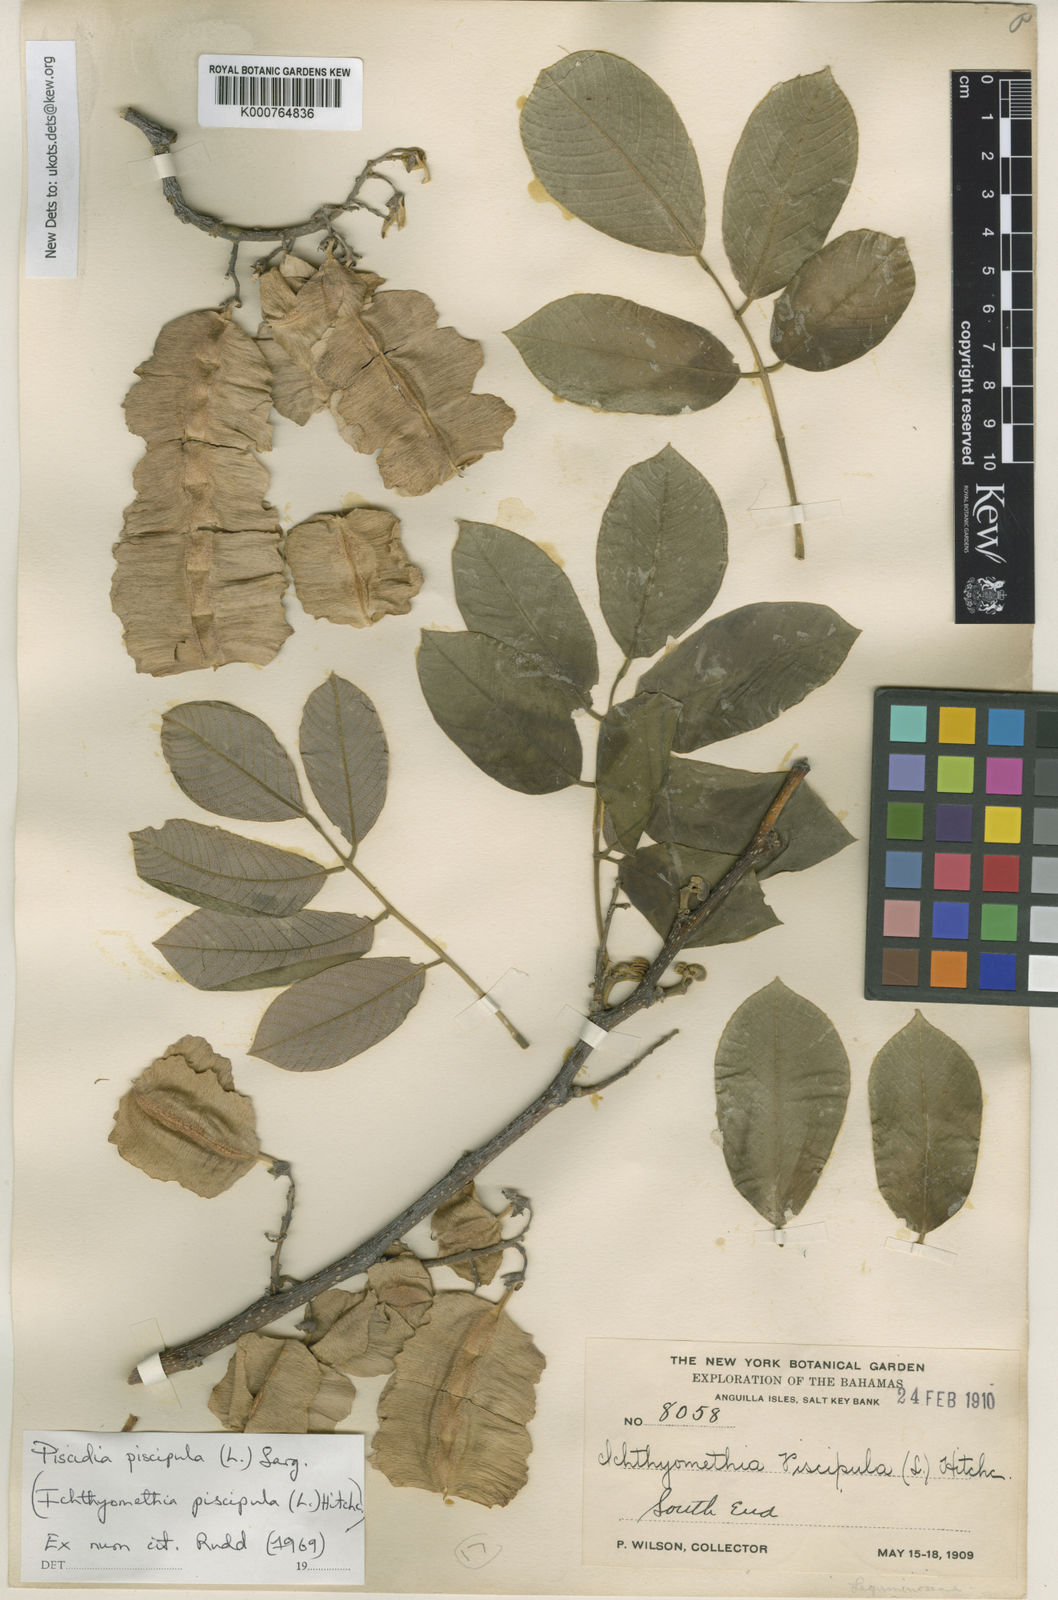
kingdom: Plantae
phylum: Tracheophyta
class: Magnoliopsida
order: Fabales
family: Fabaceae
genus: Piscidia
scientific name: Piscidia piscipula
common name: Florida fishpoison tree
